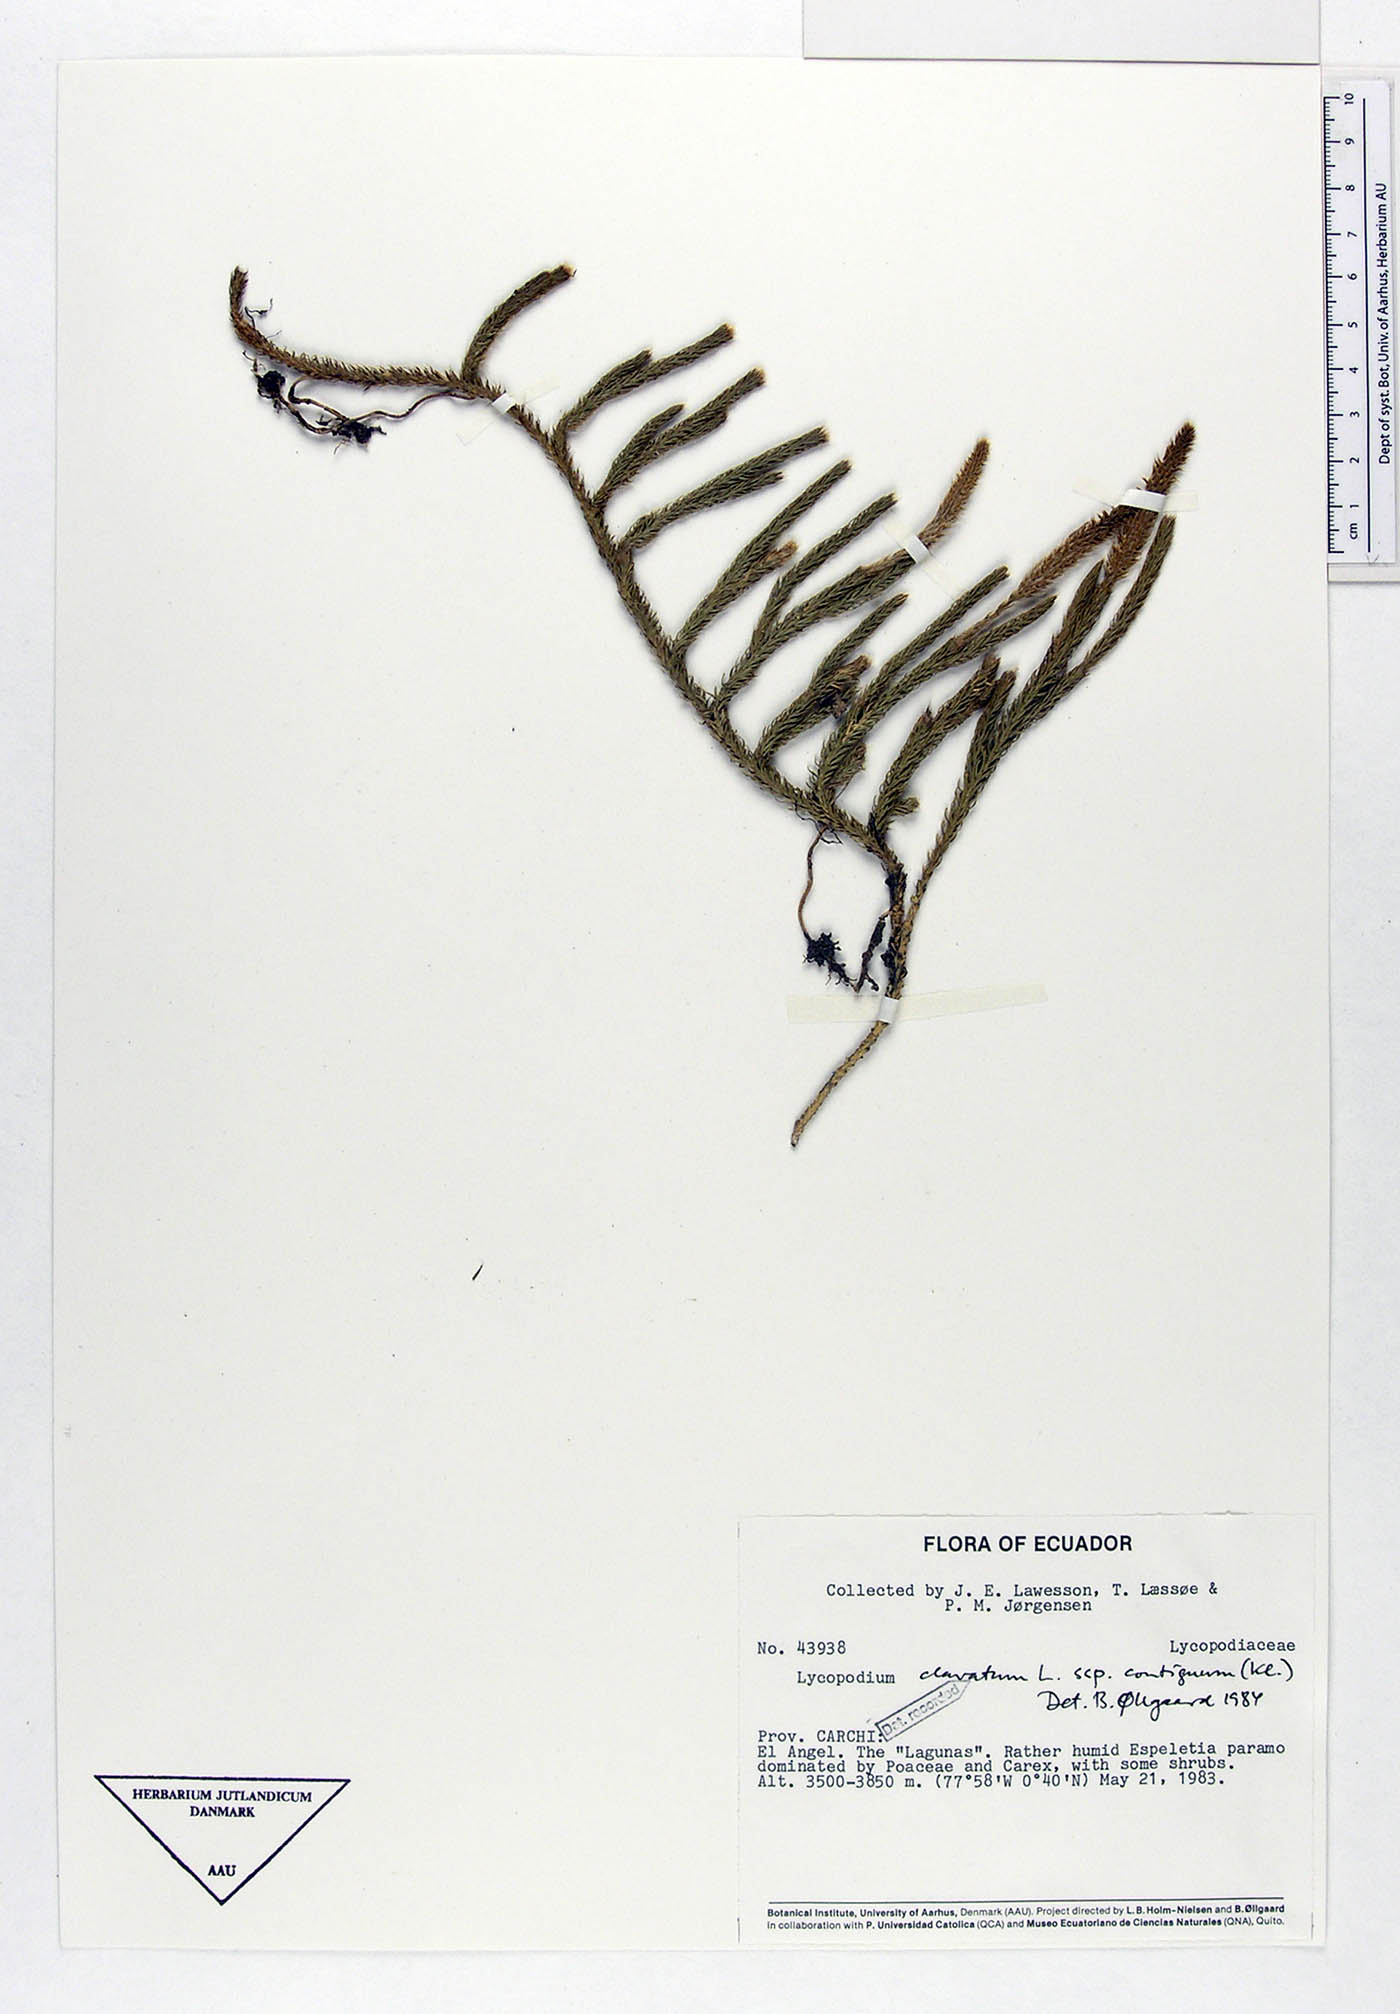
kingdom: Plantae
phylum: Tracheophyta
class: Lycopodiopsida
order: Lycopodiales
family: Lycopodiaceae
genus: Lycopodium
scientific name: Lycopodium clavatum
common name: Stag's-horn clubmoss
